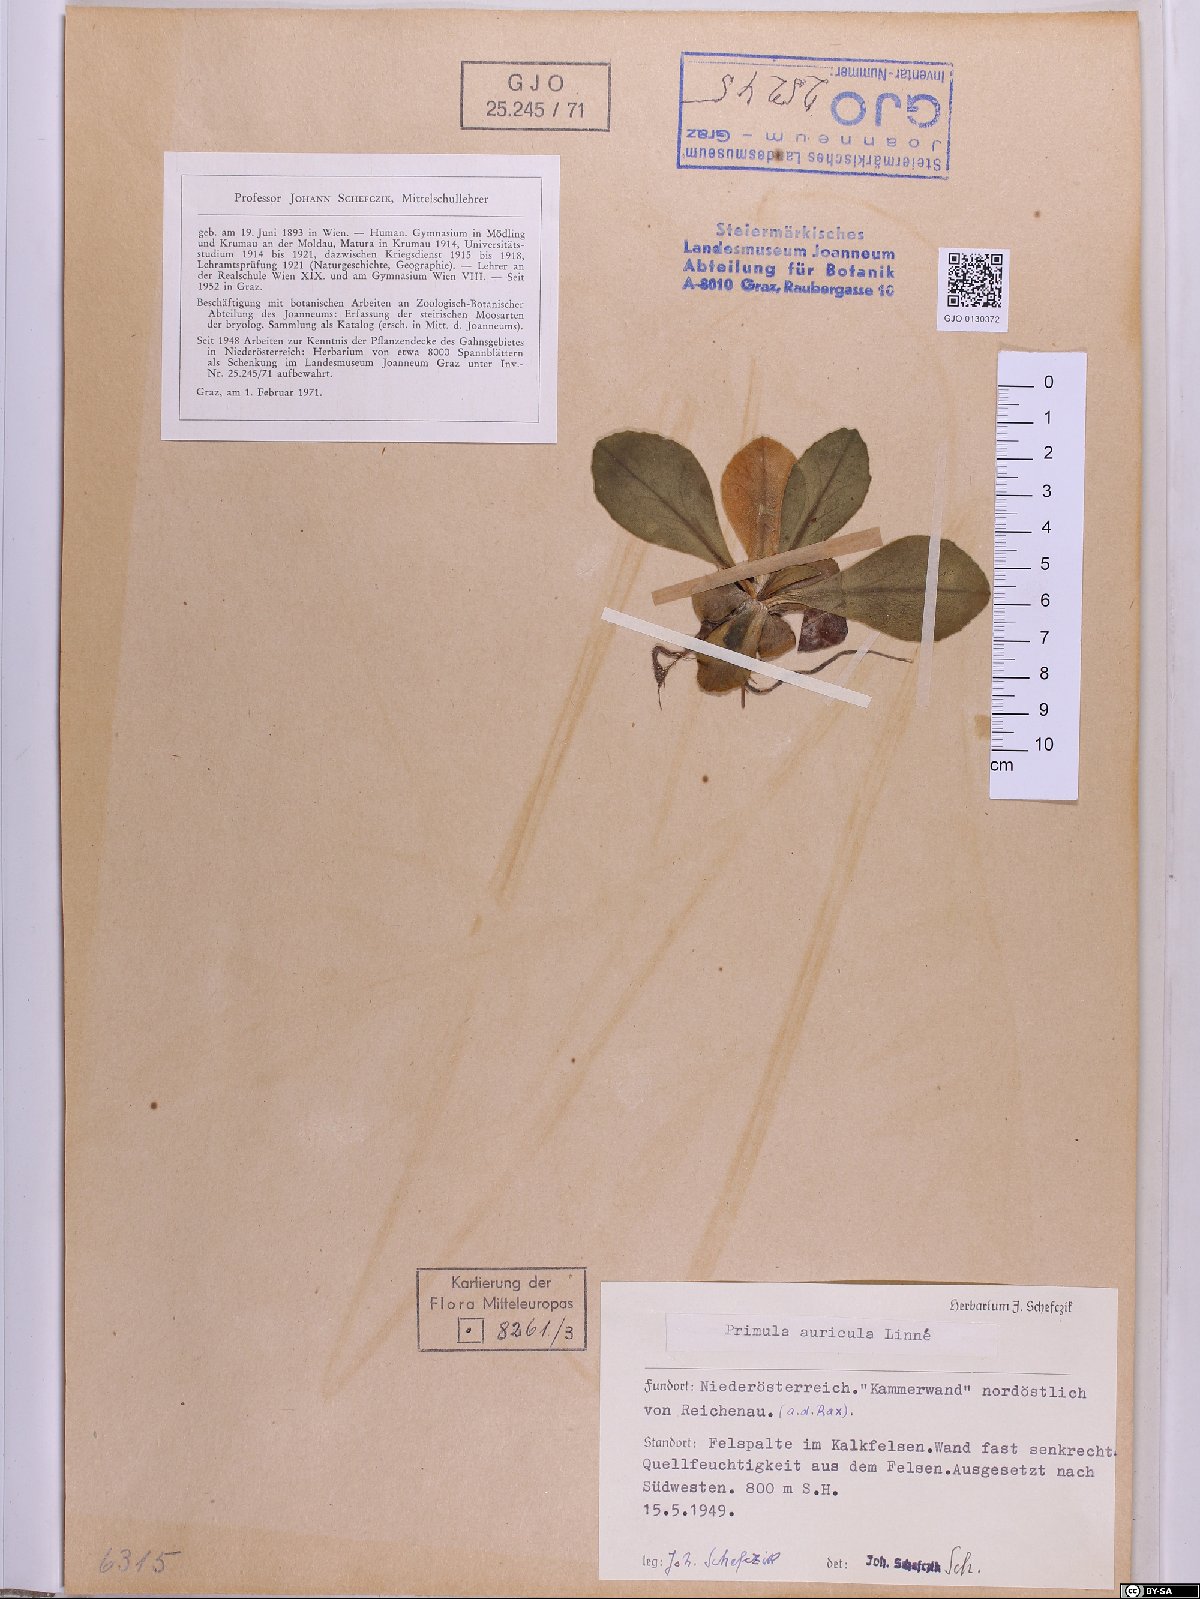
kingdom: Plantae
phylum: Tracheophyta
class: Magnoliopsida
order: Ericales
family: Primulaceae
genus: Primula
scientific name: Primula auricula
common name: Auricula
